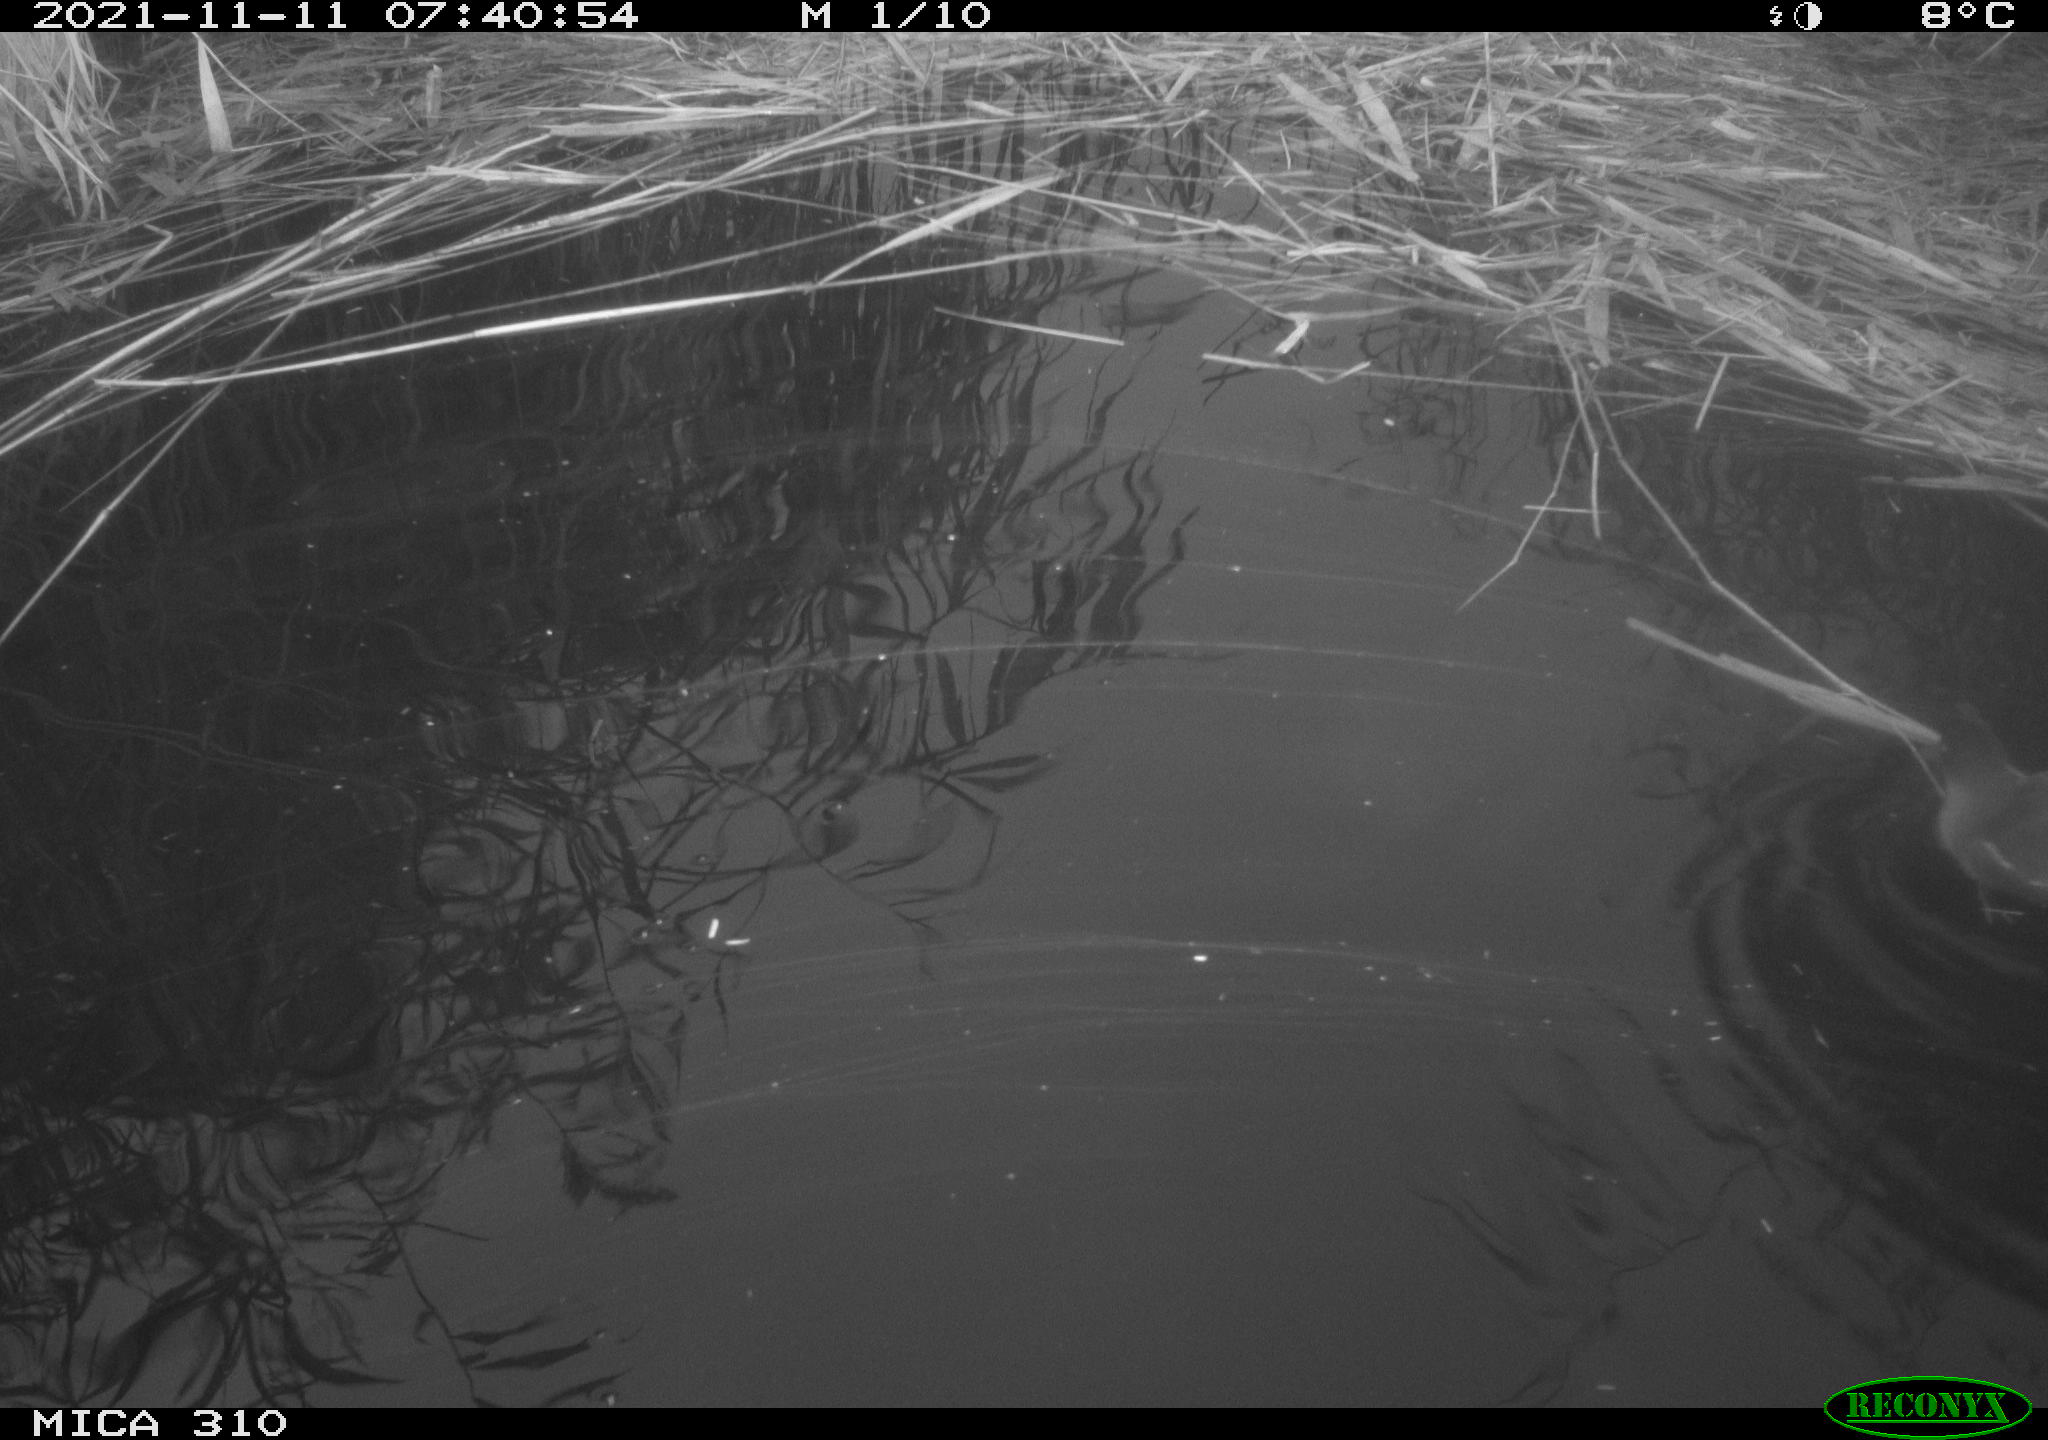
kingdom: Animalia
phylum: Chordata
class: Aves
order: Gruiformes
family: Rallidae
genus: Gallinula
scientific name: Gallinula chloropus
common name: Common moorhen
